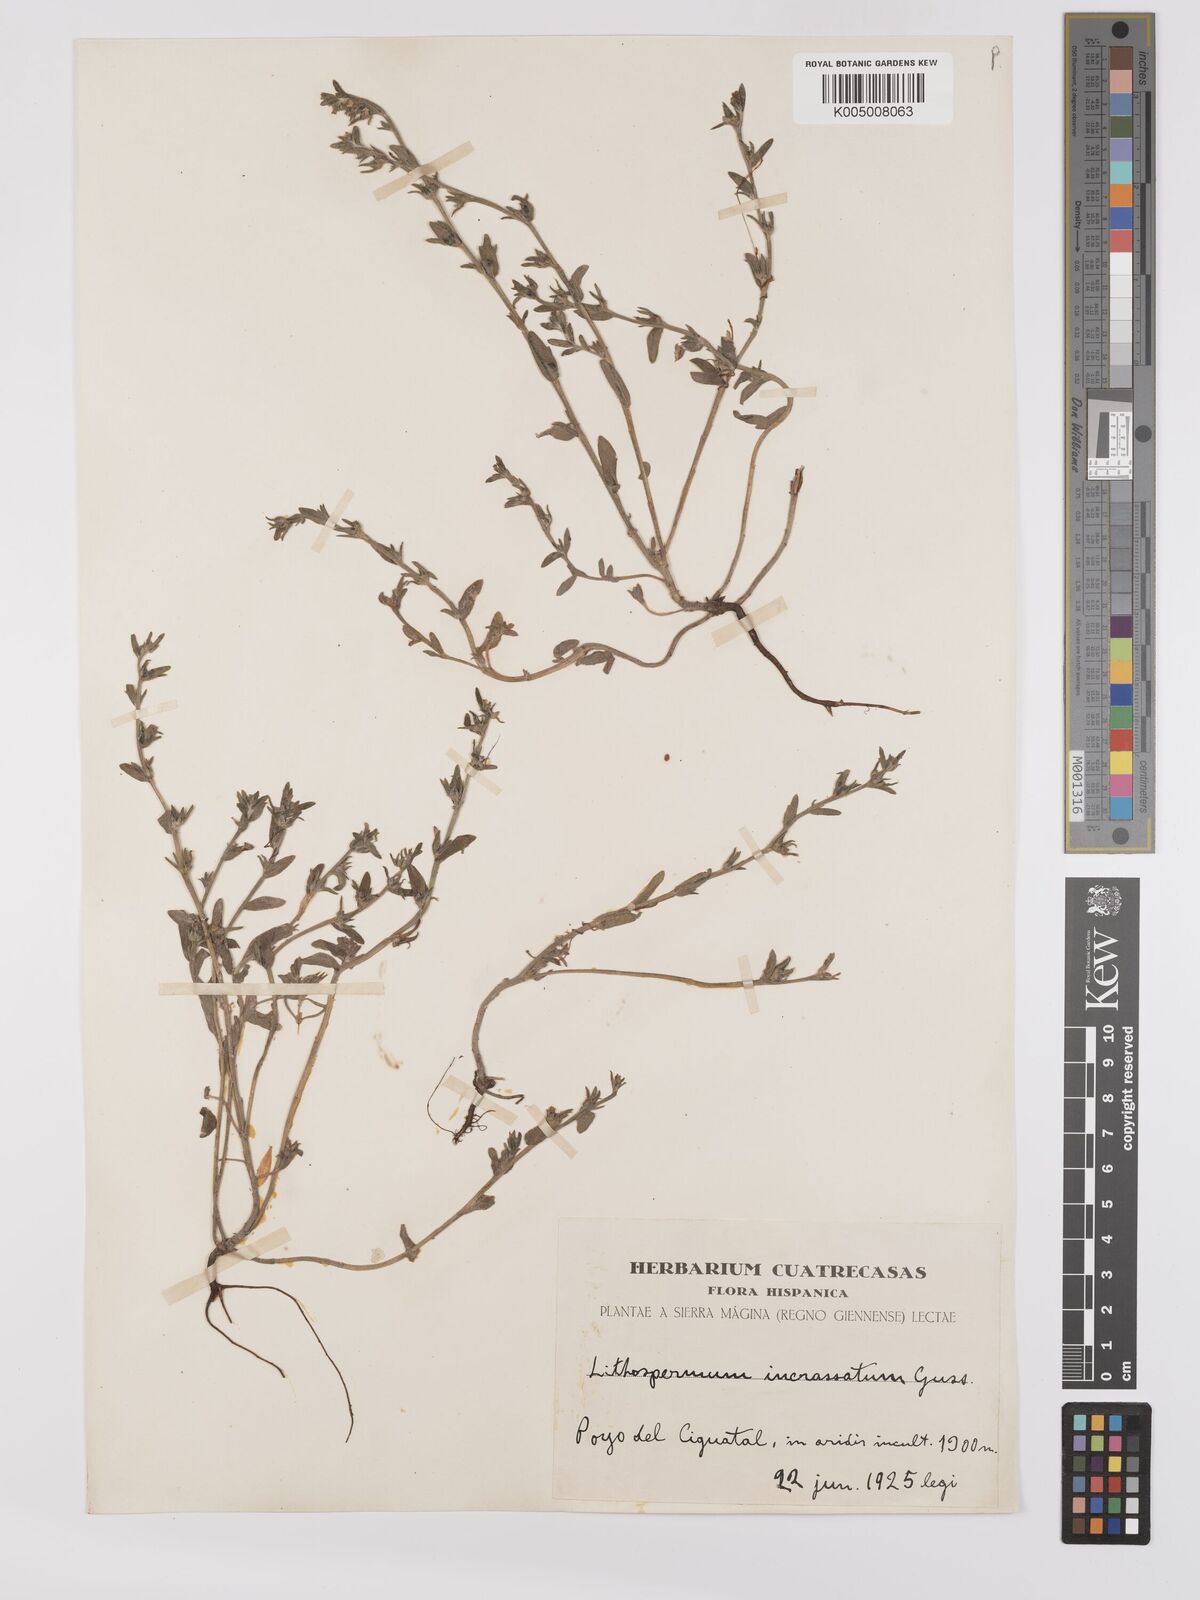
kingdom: Plantae
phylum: Tracheophyta
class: Magnoliopsida
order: Boraginales
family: Boraginaceae
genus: Buglossoides
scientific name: Buglossoides incrassata
